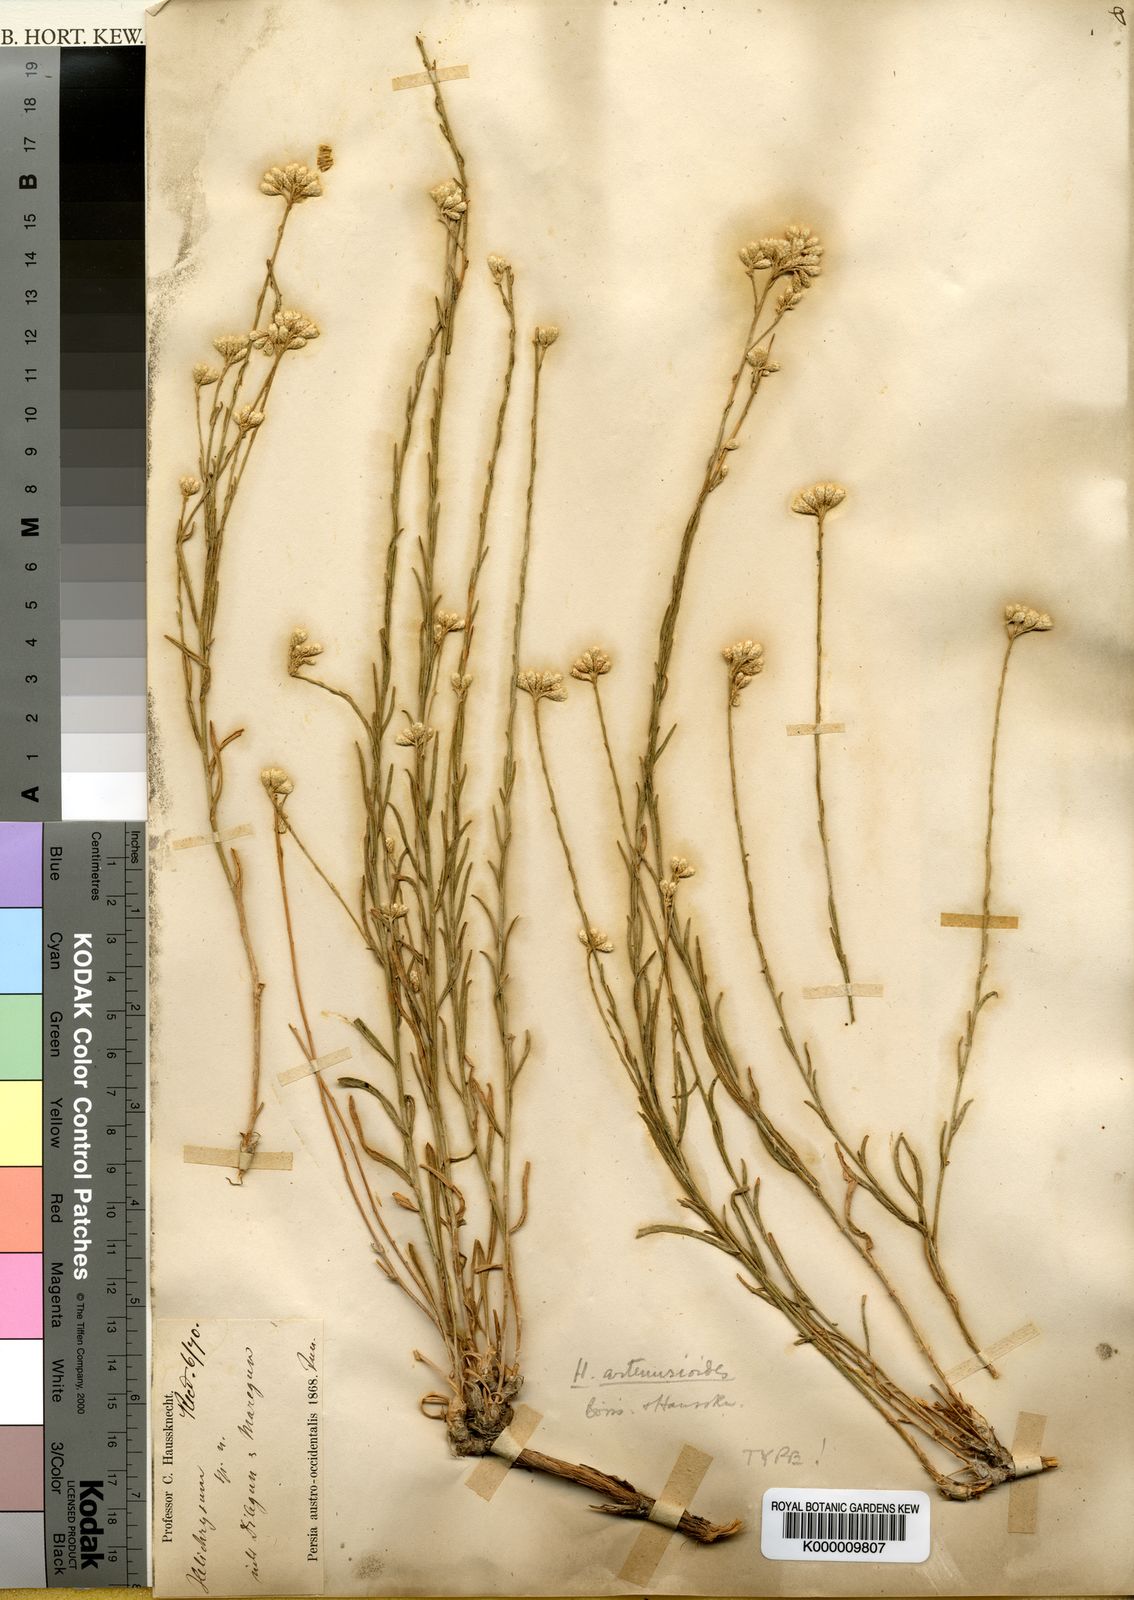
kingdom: Plantae
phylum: Tracheophyta
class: Magnoliopsida
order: Asterales
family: Asteraceae
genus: Helichrysum
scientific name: Helichrysum artemisioides
